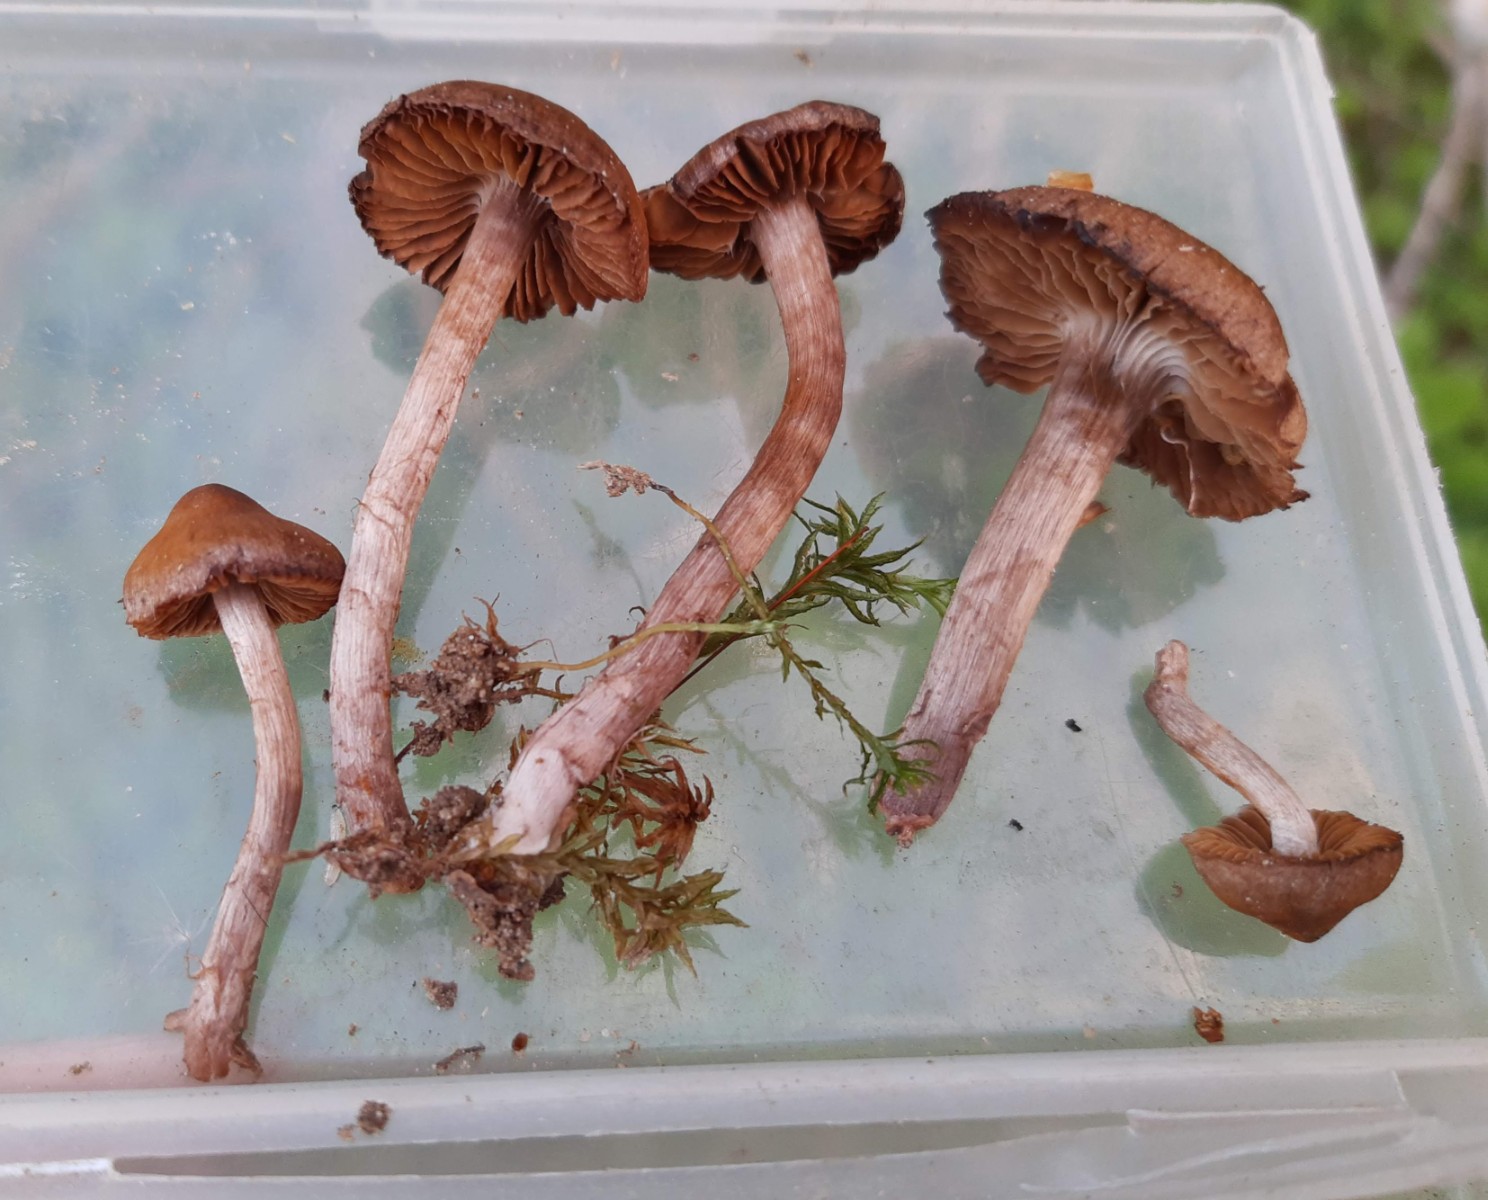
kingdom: Fungi
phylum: Basidiomycota
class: Agaricomycetes
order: Agaricales
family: Cortinariaceae
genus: Cortinarius
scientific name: Cortinarius suberythrinus
